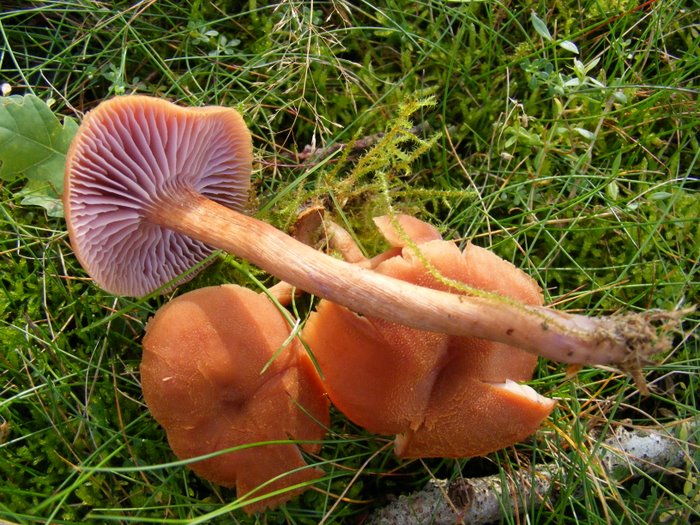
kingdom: Fungi
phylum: Basidiomycota
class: Agaricomycetes
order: Agaricales
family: Hydnangiaceae
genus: Laccaria
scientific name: Laccaria bicolor
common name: tvefarvet ametysthat
